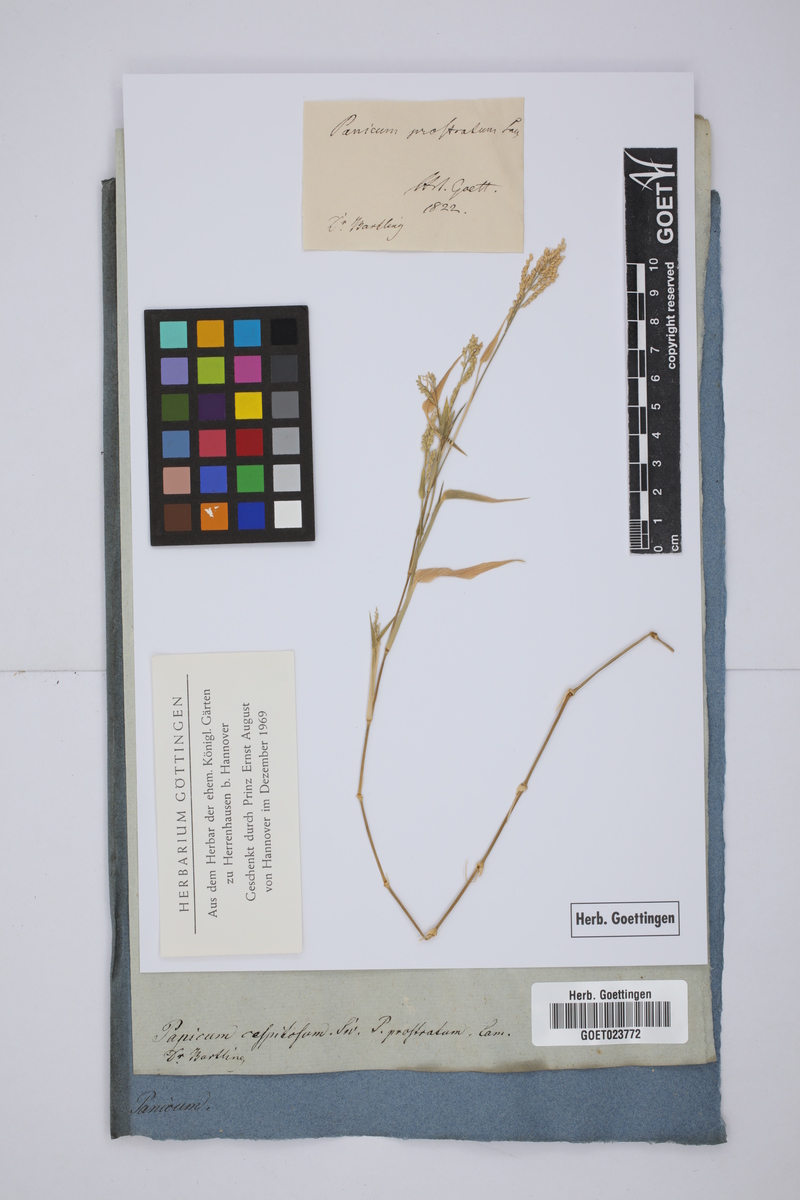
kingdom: Plantae
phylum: Tracheophyta
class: Liliopsida
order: Poales
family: Poaceae
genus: Urochloa
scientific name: Urochloa reptans
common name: Sprawling signalgrass
